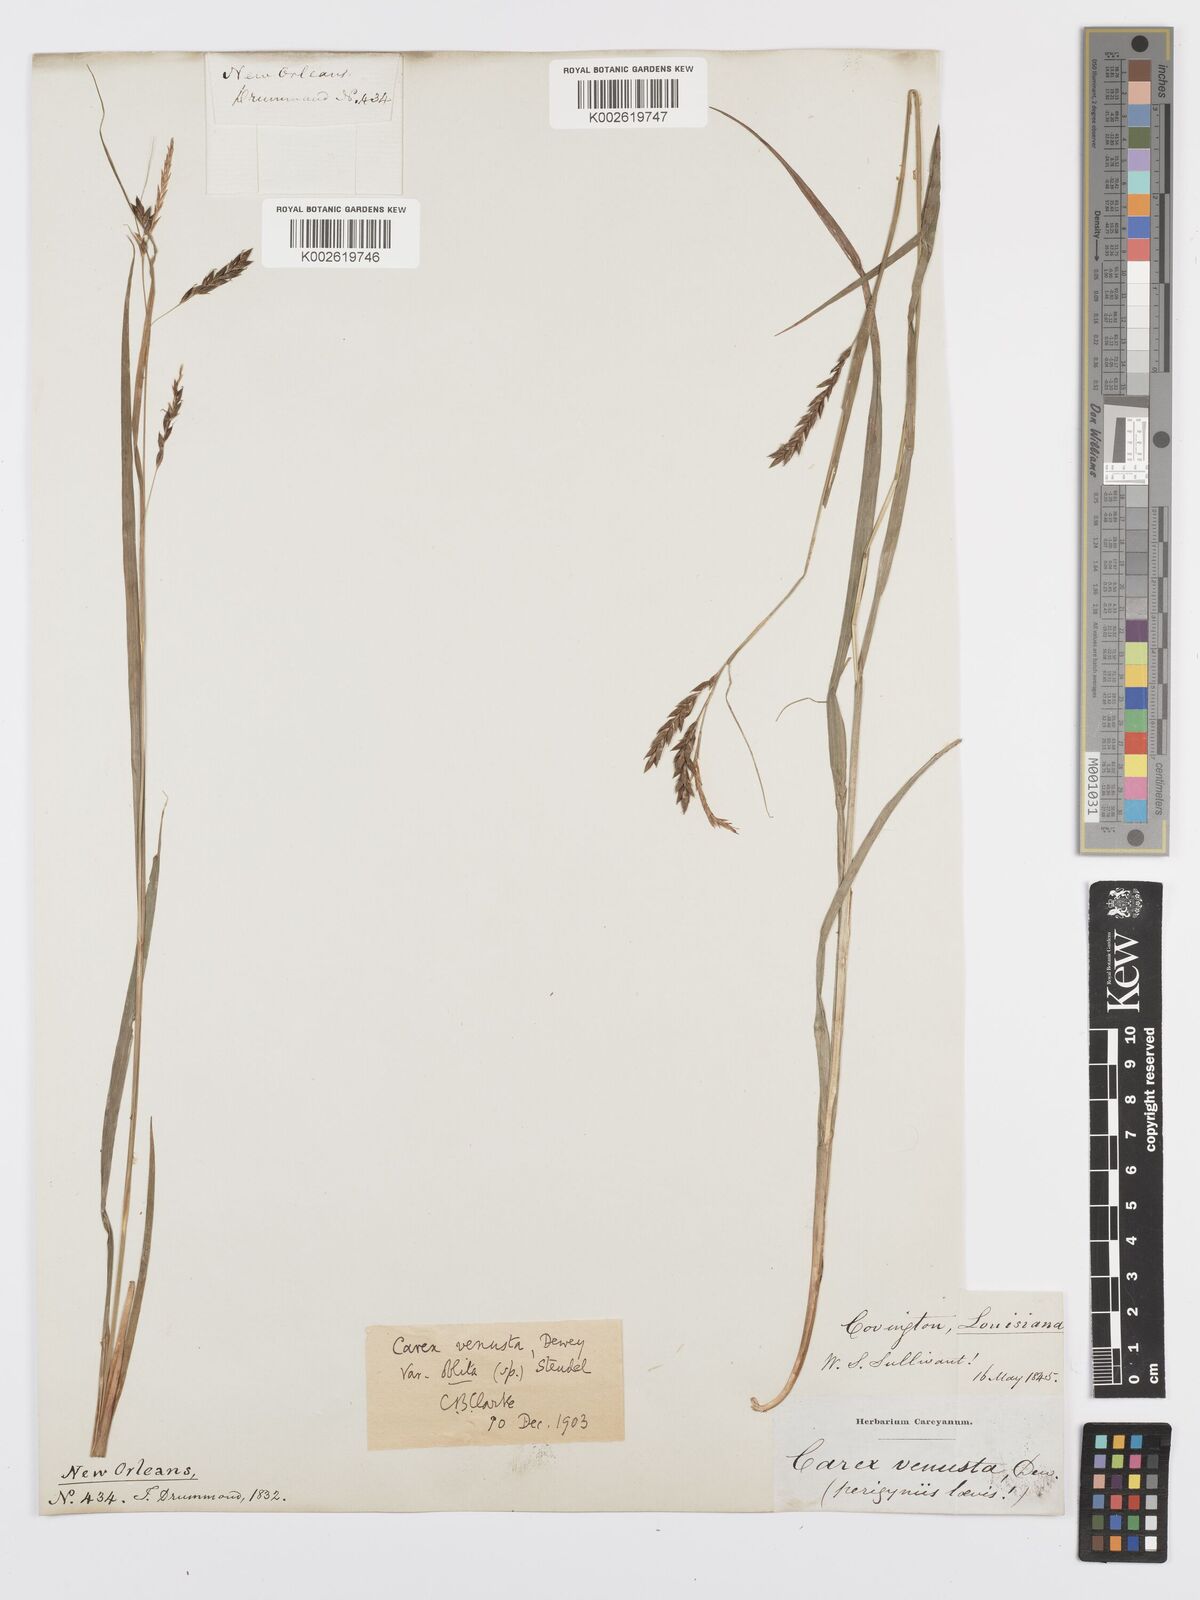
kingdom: Plantae
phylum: Tracheophyta
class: Liliopsida
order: Poales
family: Cyperaceae
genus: Carex
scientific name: Carex venusta
